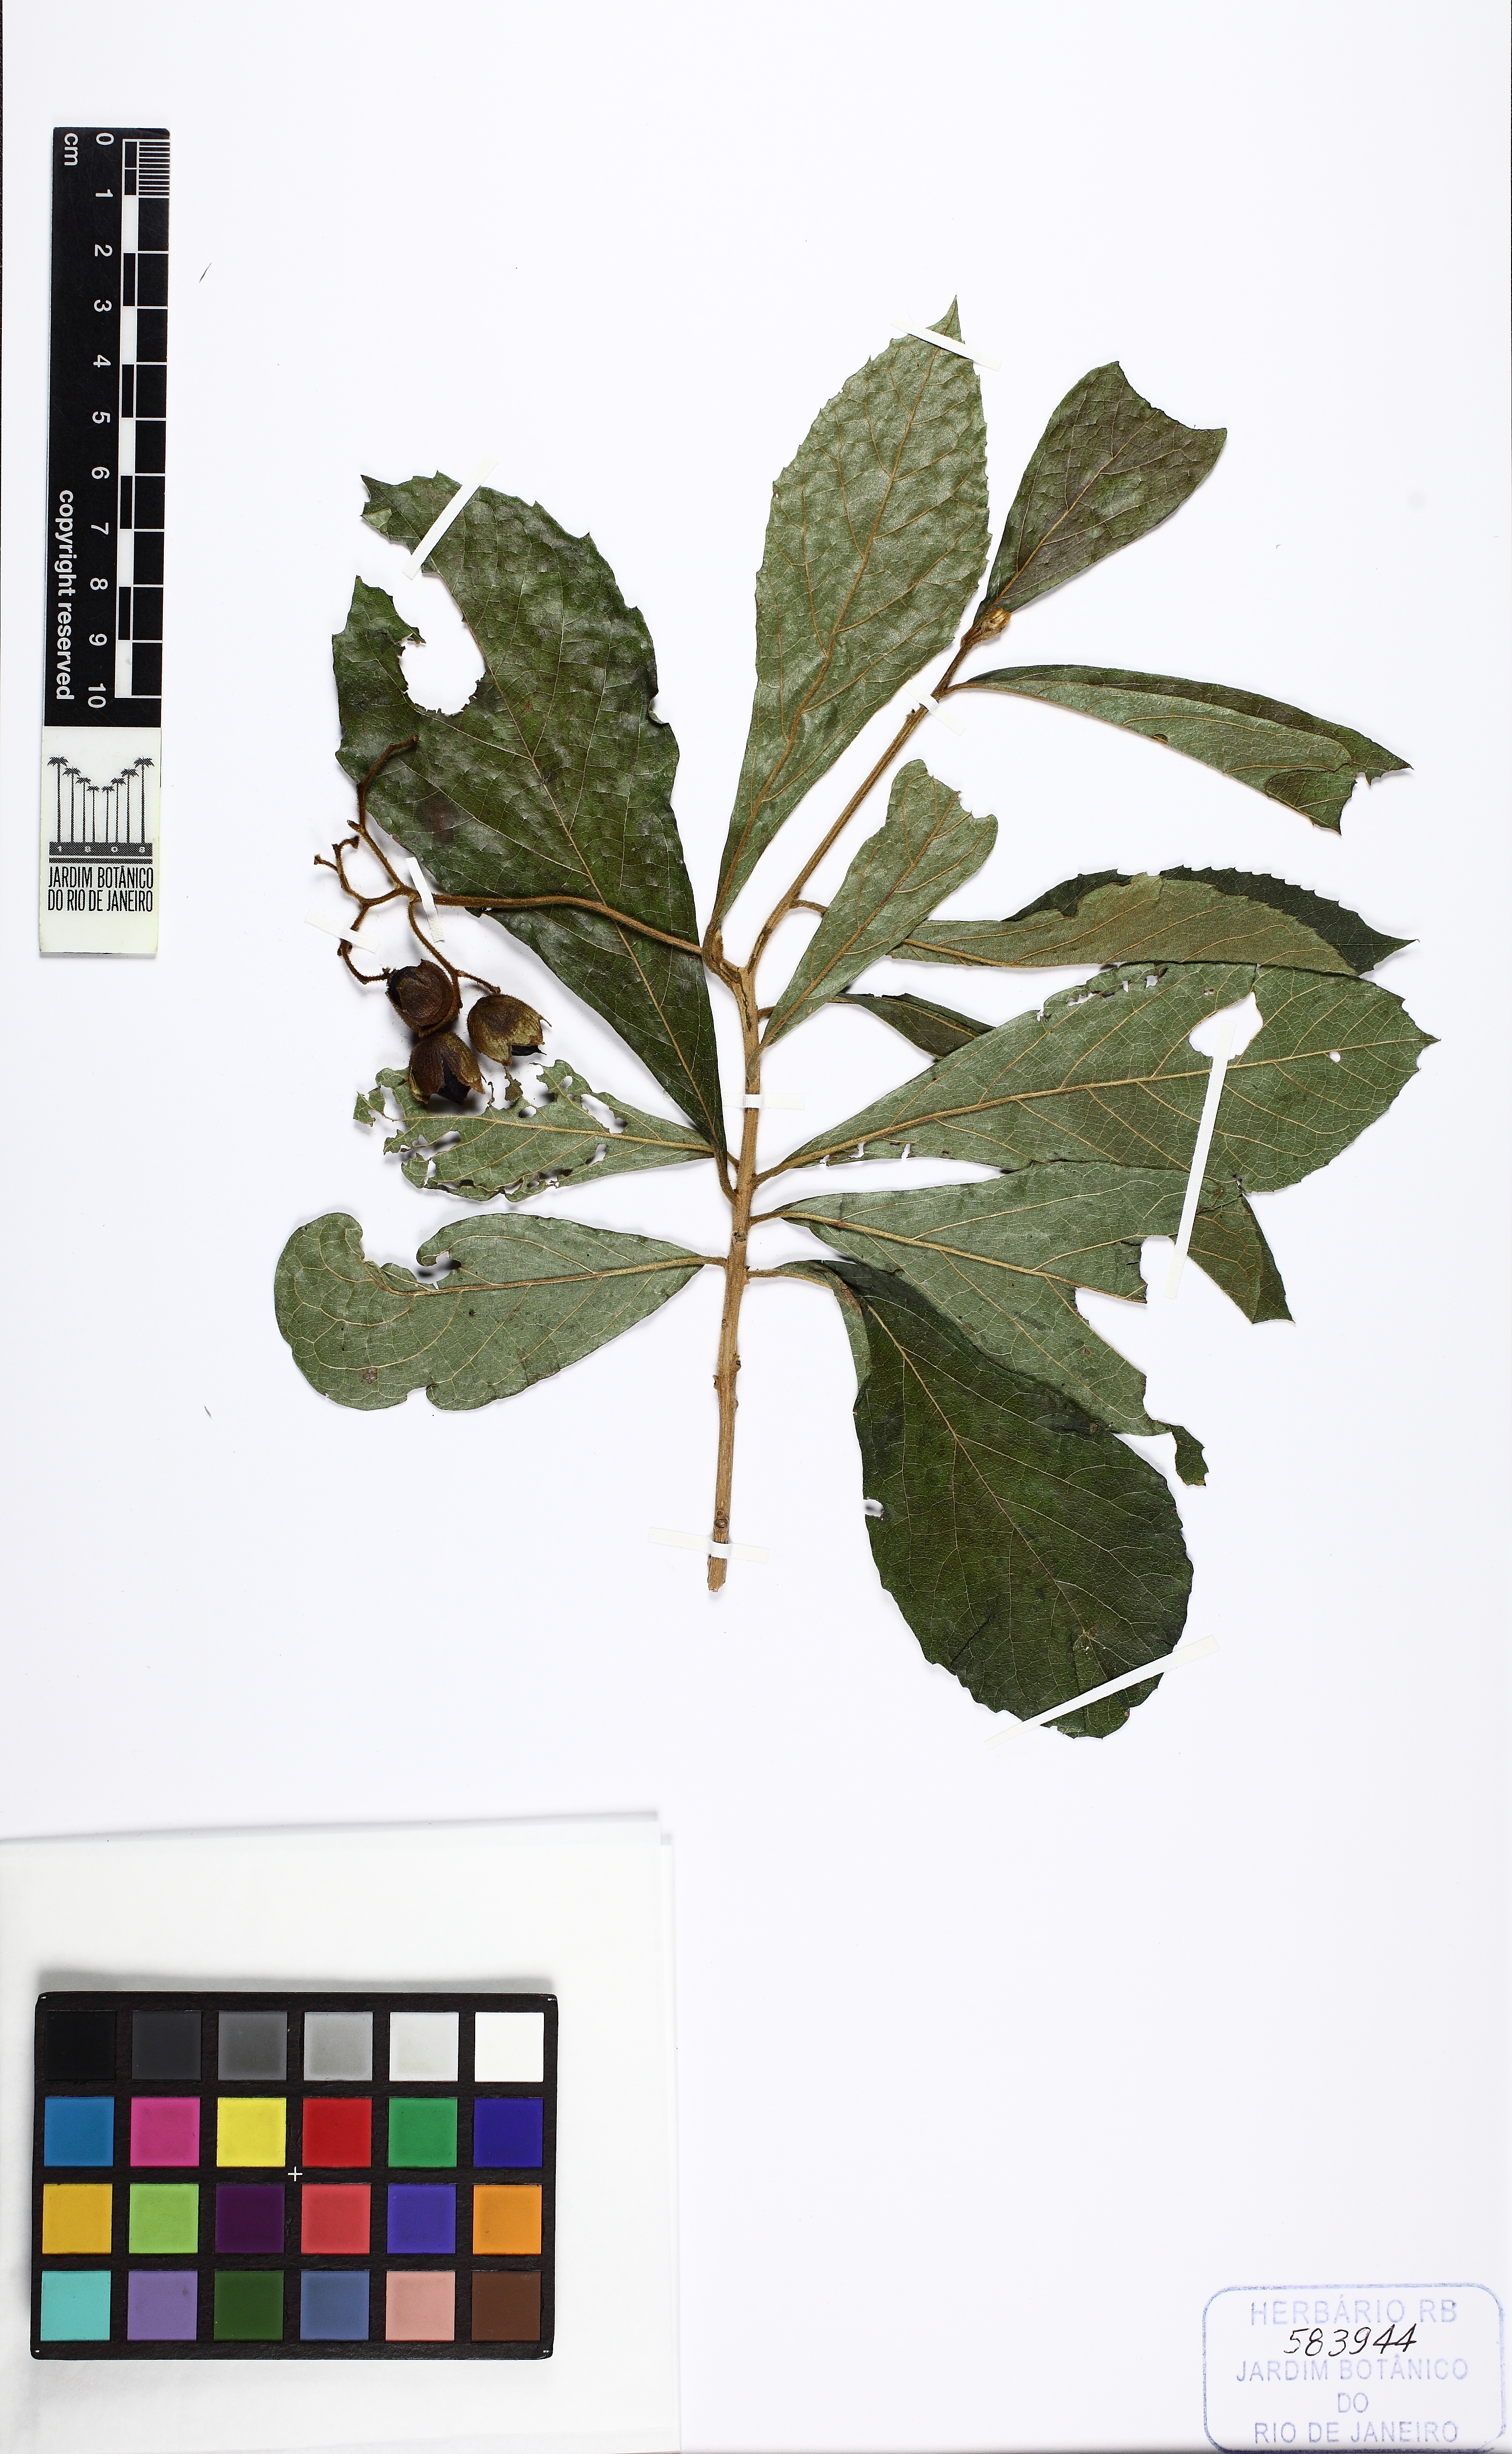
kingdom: Plantae
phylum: Tracheophyta
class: Magnoliopsida
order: Boraginales
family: Cordiaceae
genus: Cordia
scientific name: Cordia superba
